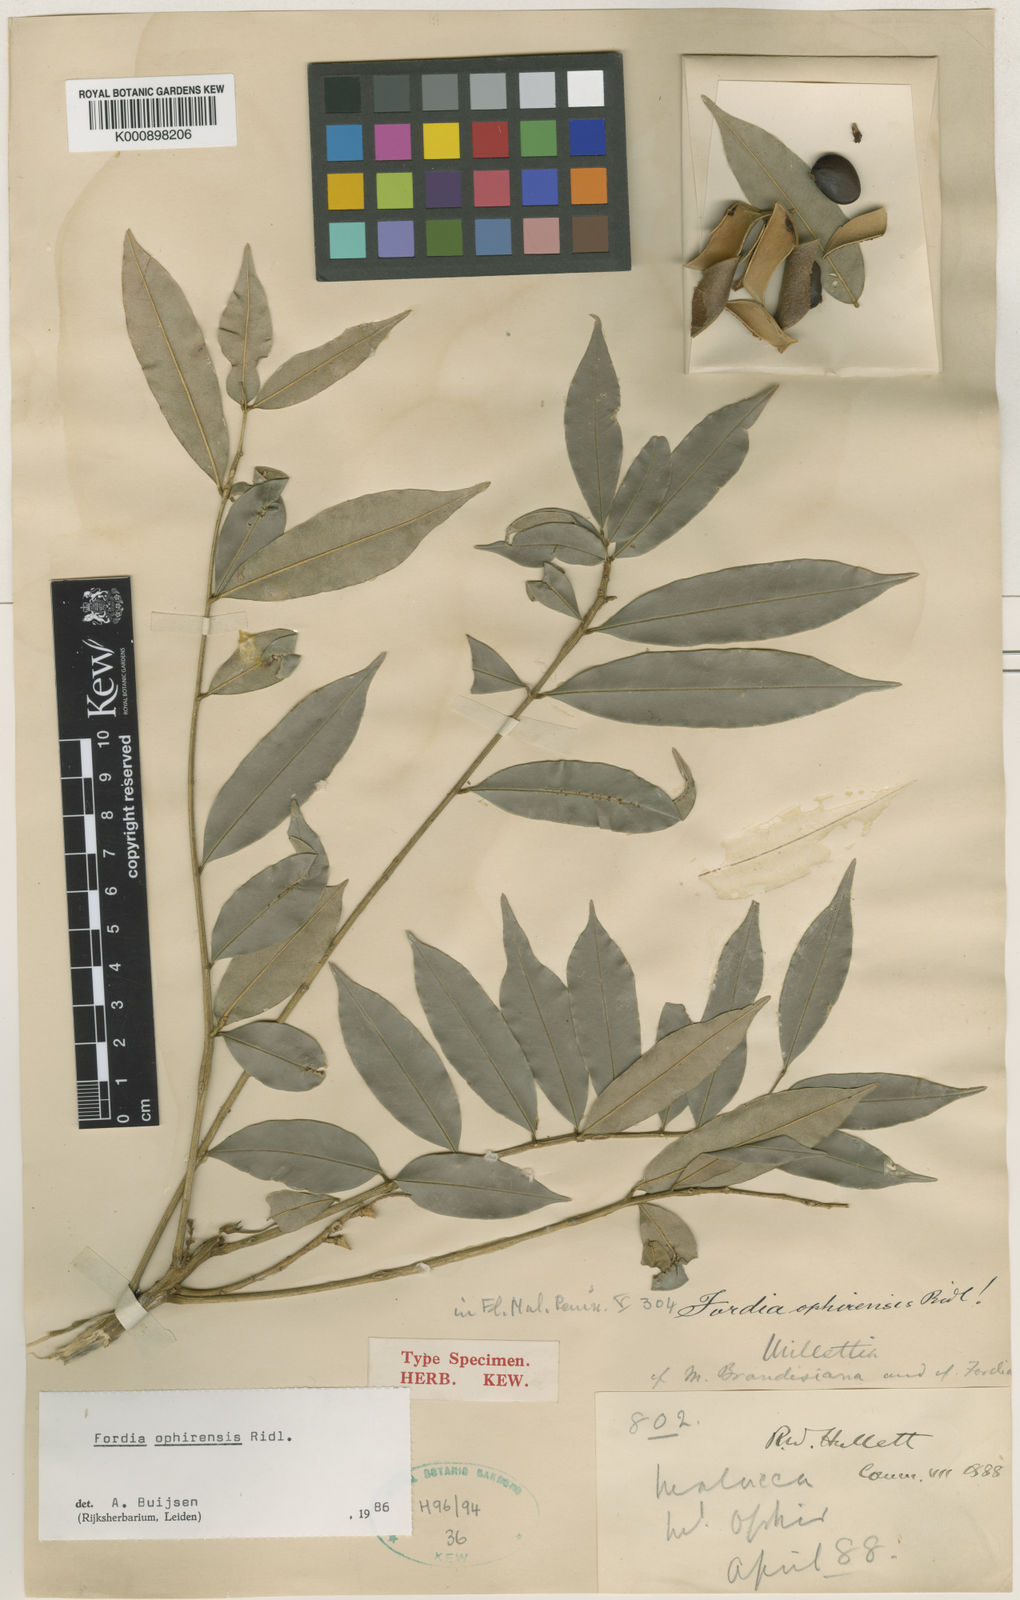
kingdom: Plantae
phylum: Tracheophyta
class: Magnoliopsida
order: Fabales
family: Fabaceae
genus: Fordia
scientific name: Fordia ophirensis
